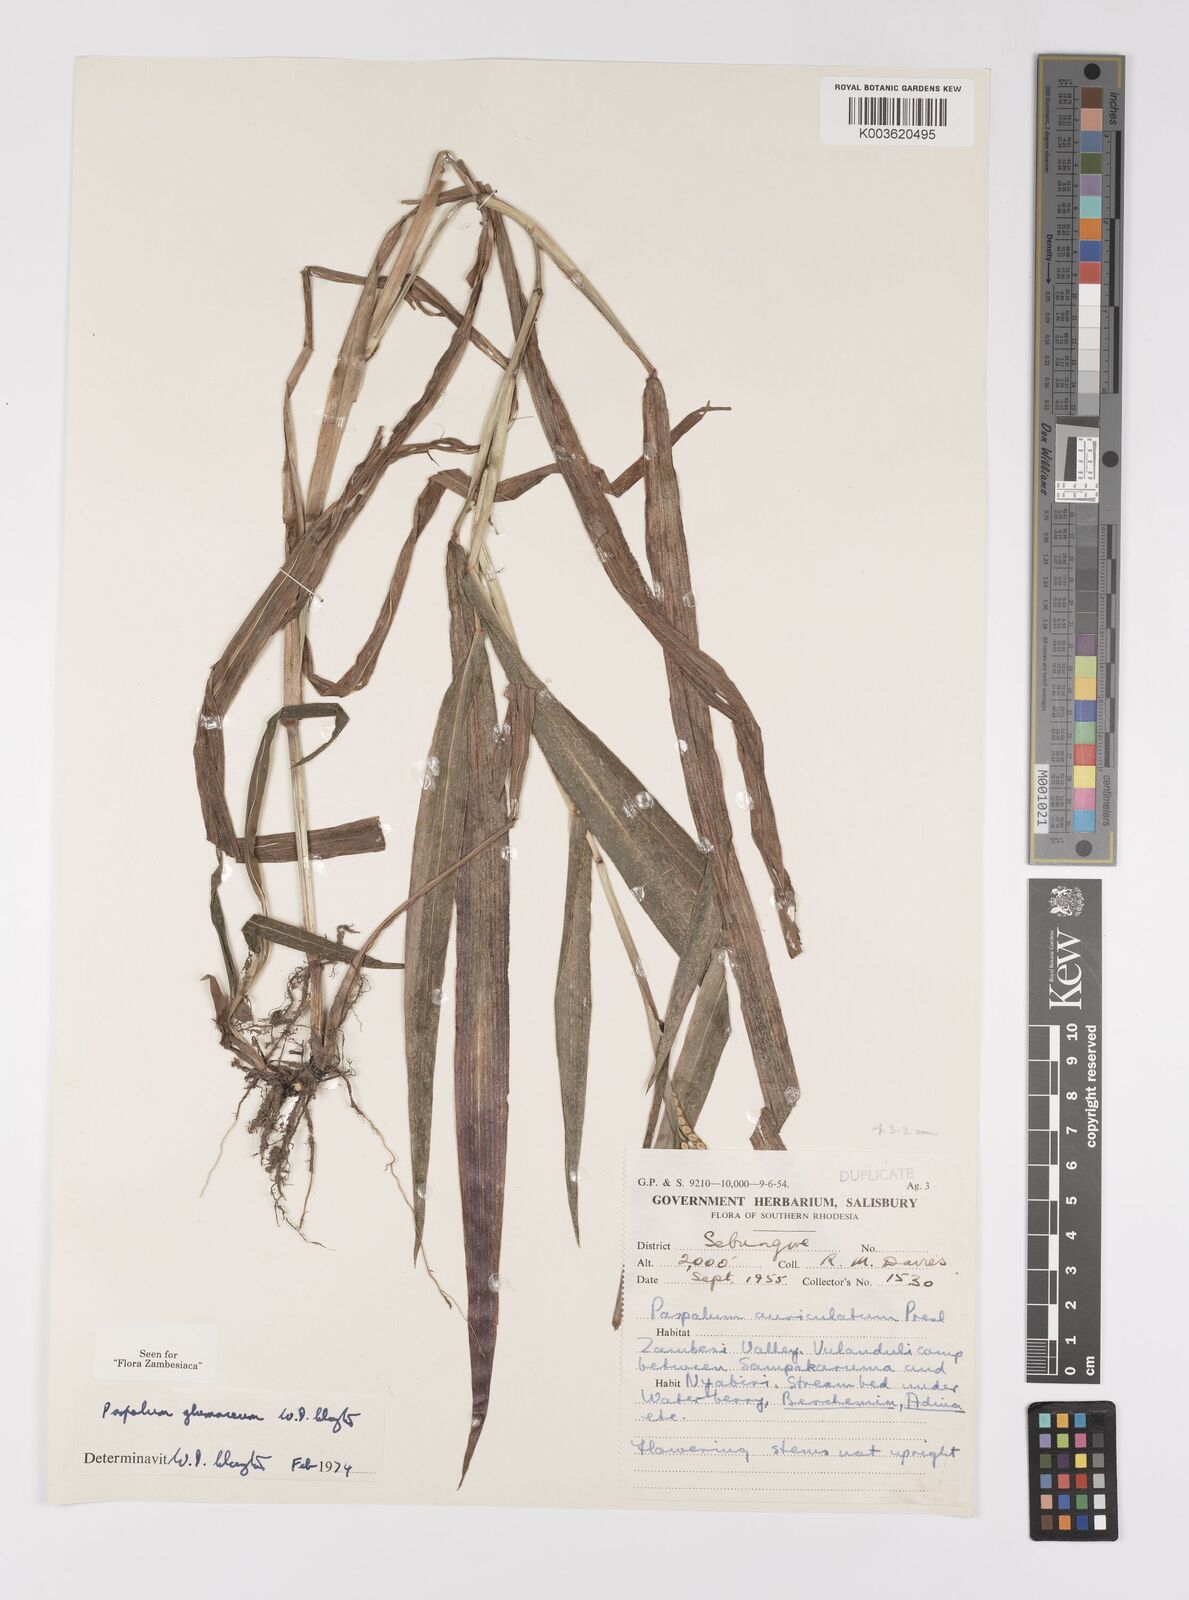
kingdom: Plantae
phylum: Tracheophyta
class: Liliopsida
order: Poales
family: Poaceae
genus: Paspalum
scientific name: Paspalum glumaceum
